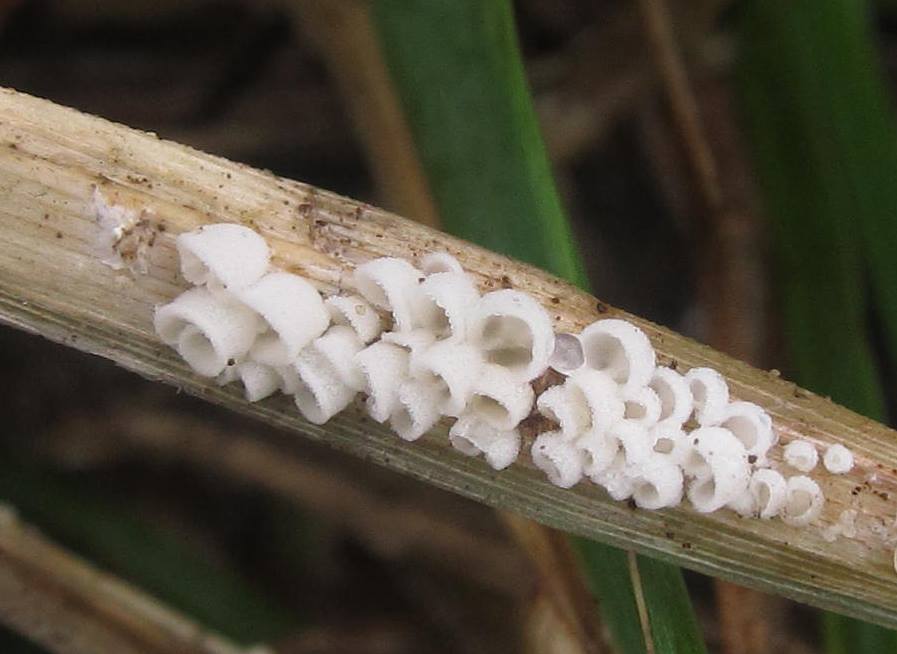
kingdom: Fungi
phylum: Basidiomycota
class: Agaricomycetes
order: Agaricales
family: Tricholomataceae
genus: Cellypha
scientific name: Cellypha goldbachii
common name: dråbeskål
